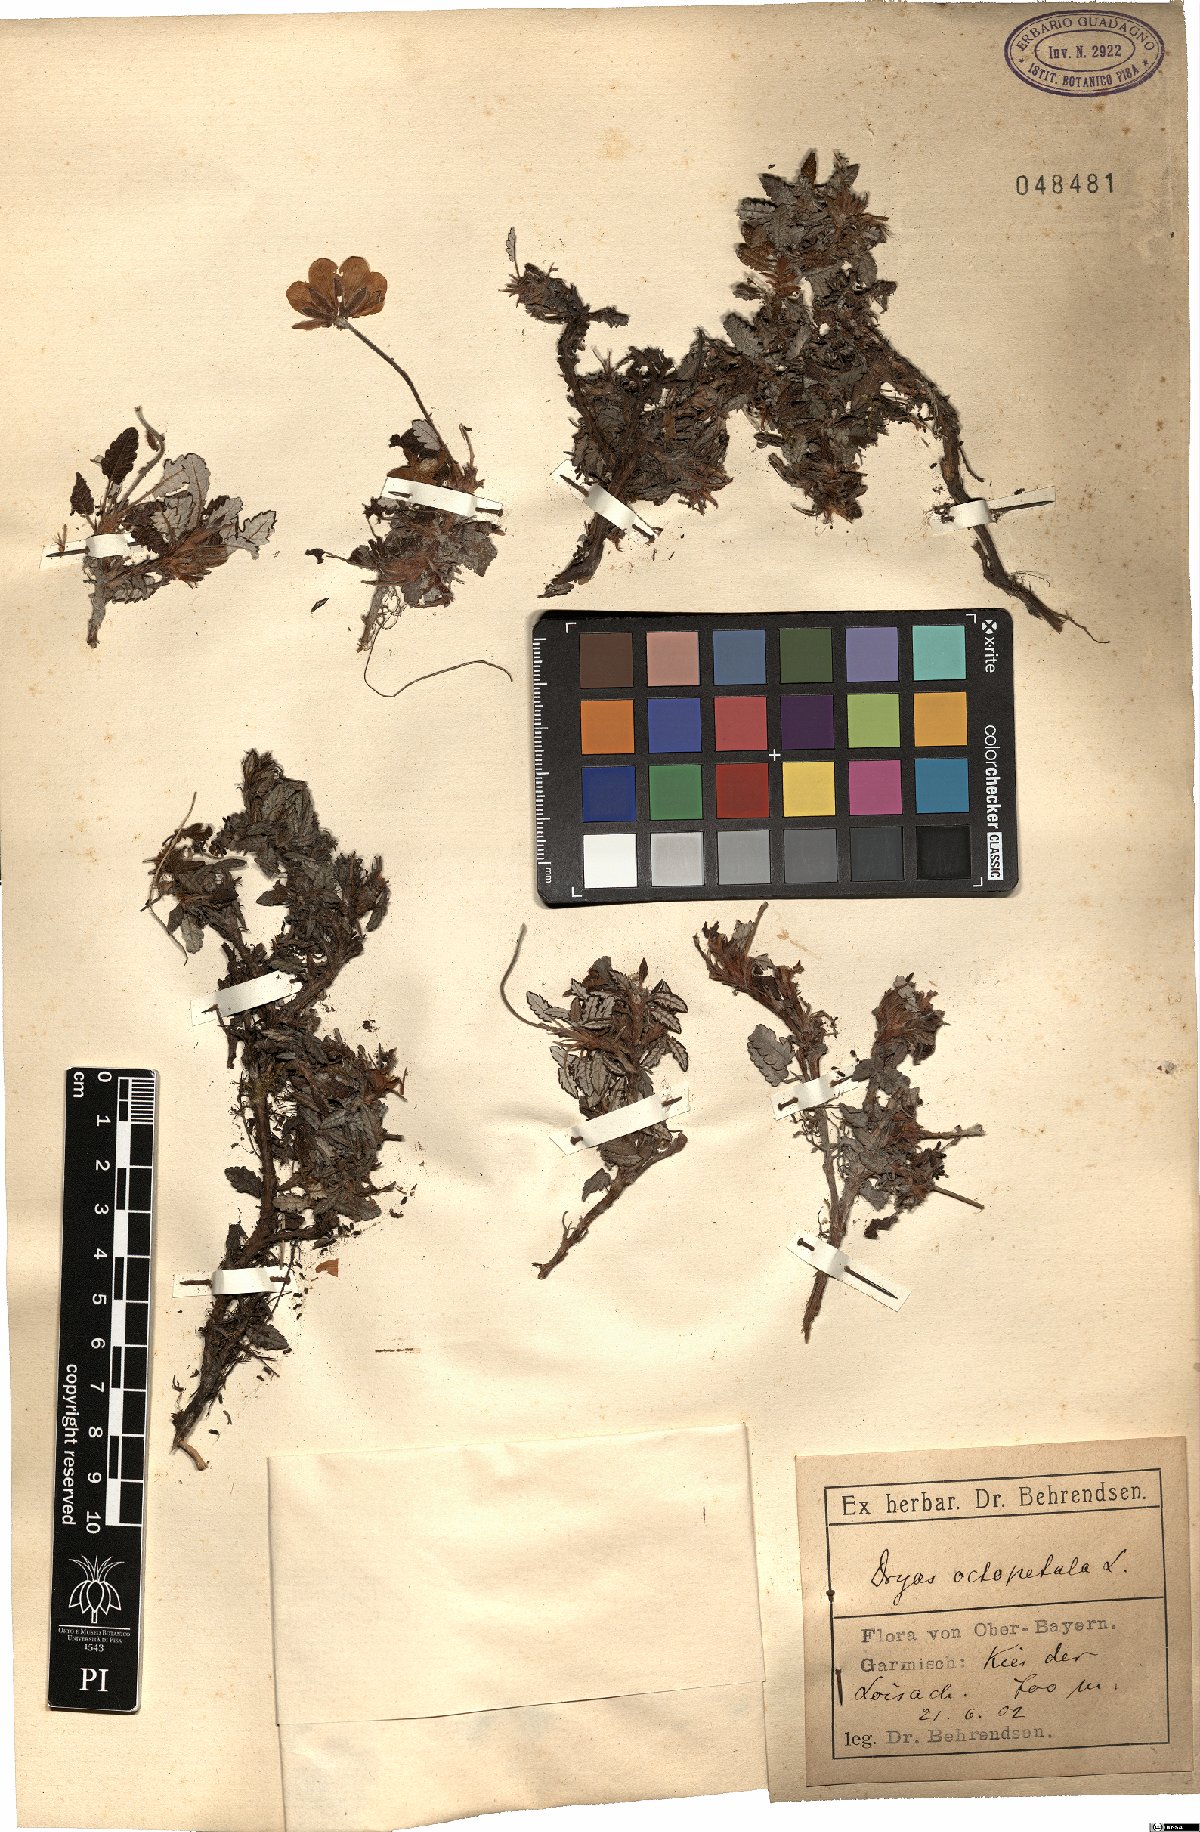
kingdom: Plantae
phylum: Tracheophyta
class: Magnoliopsida
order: Rosales
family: Rosaceae
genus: Dryas
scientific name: Dryas octopetala
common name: Eight-petal mountain-avens
